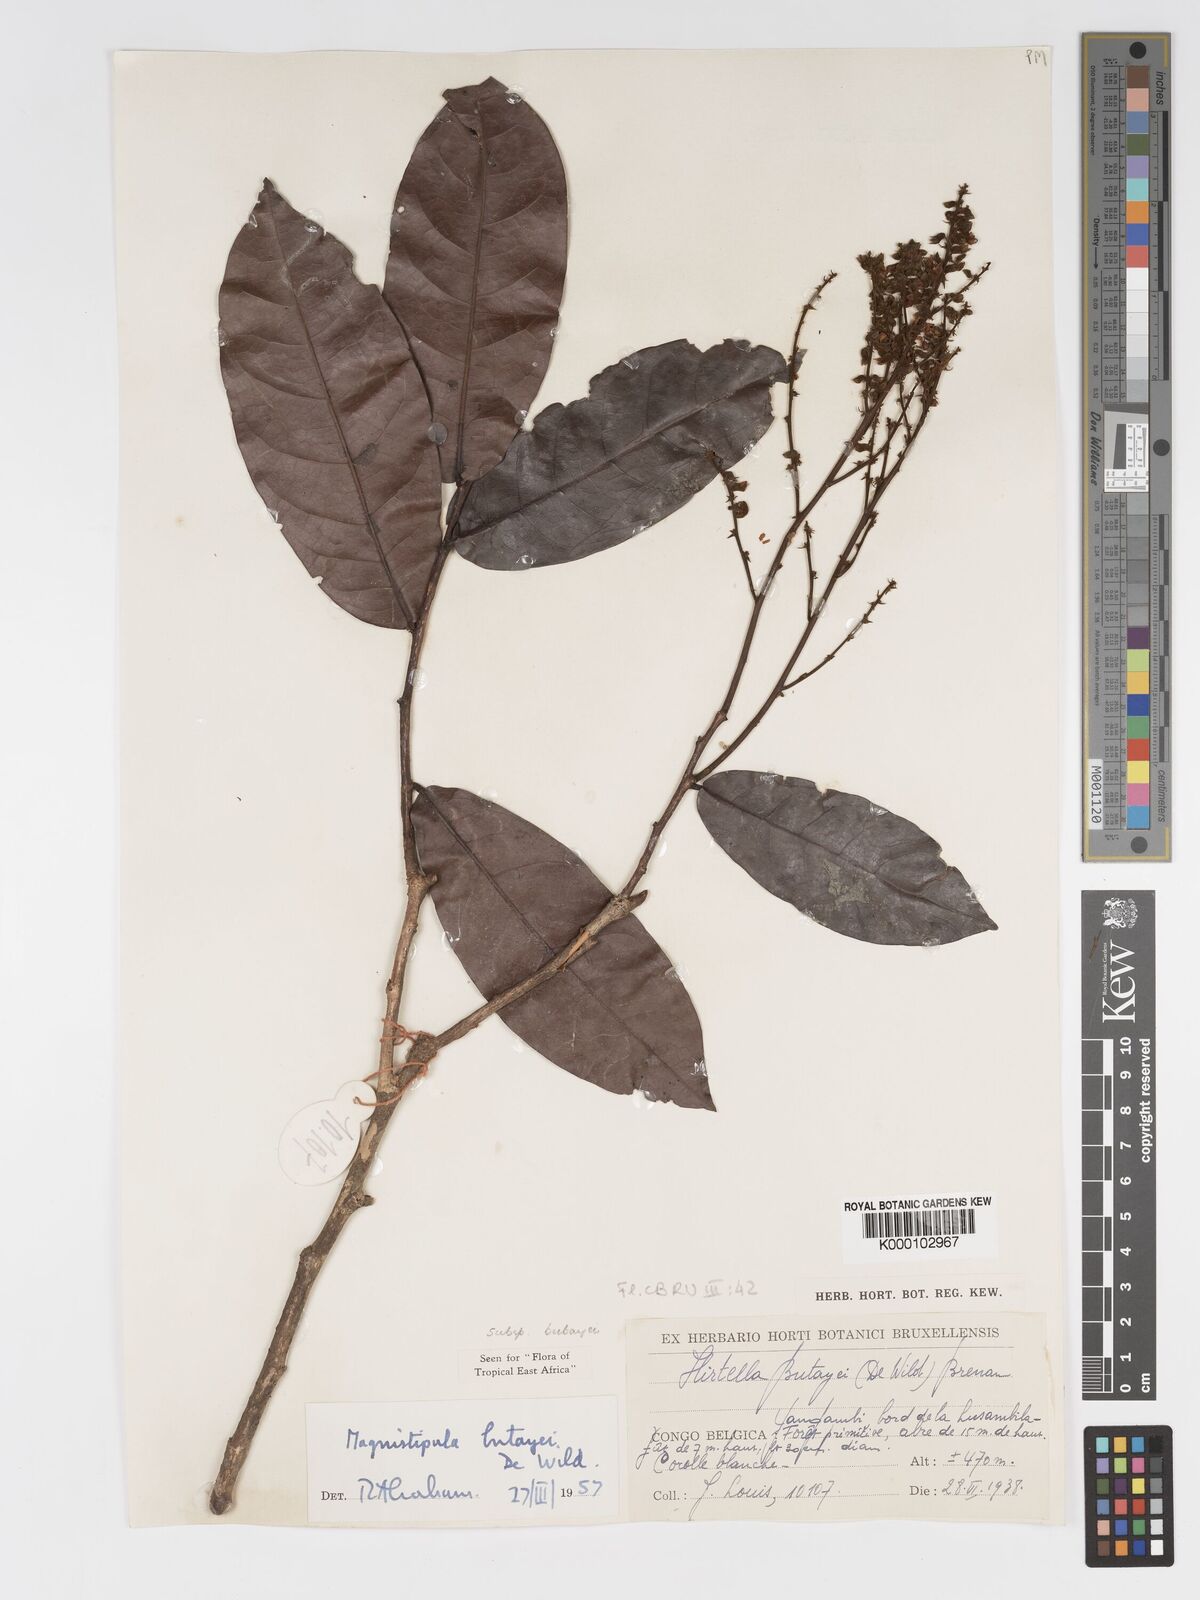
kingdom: Plantae
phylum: Tracheophyta
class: Magnoliopsida
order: Malpighiales
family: Chrysobalanaceae
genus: Magnistipula
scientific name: Magnistipula butayei
